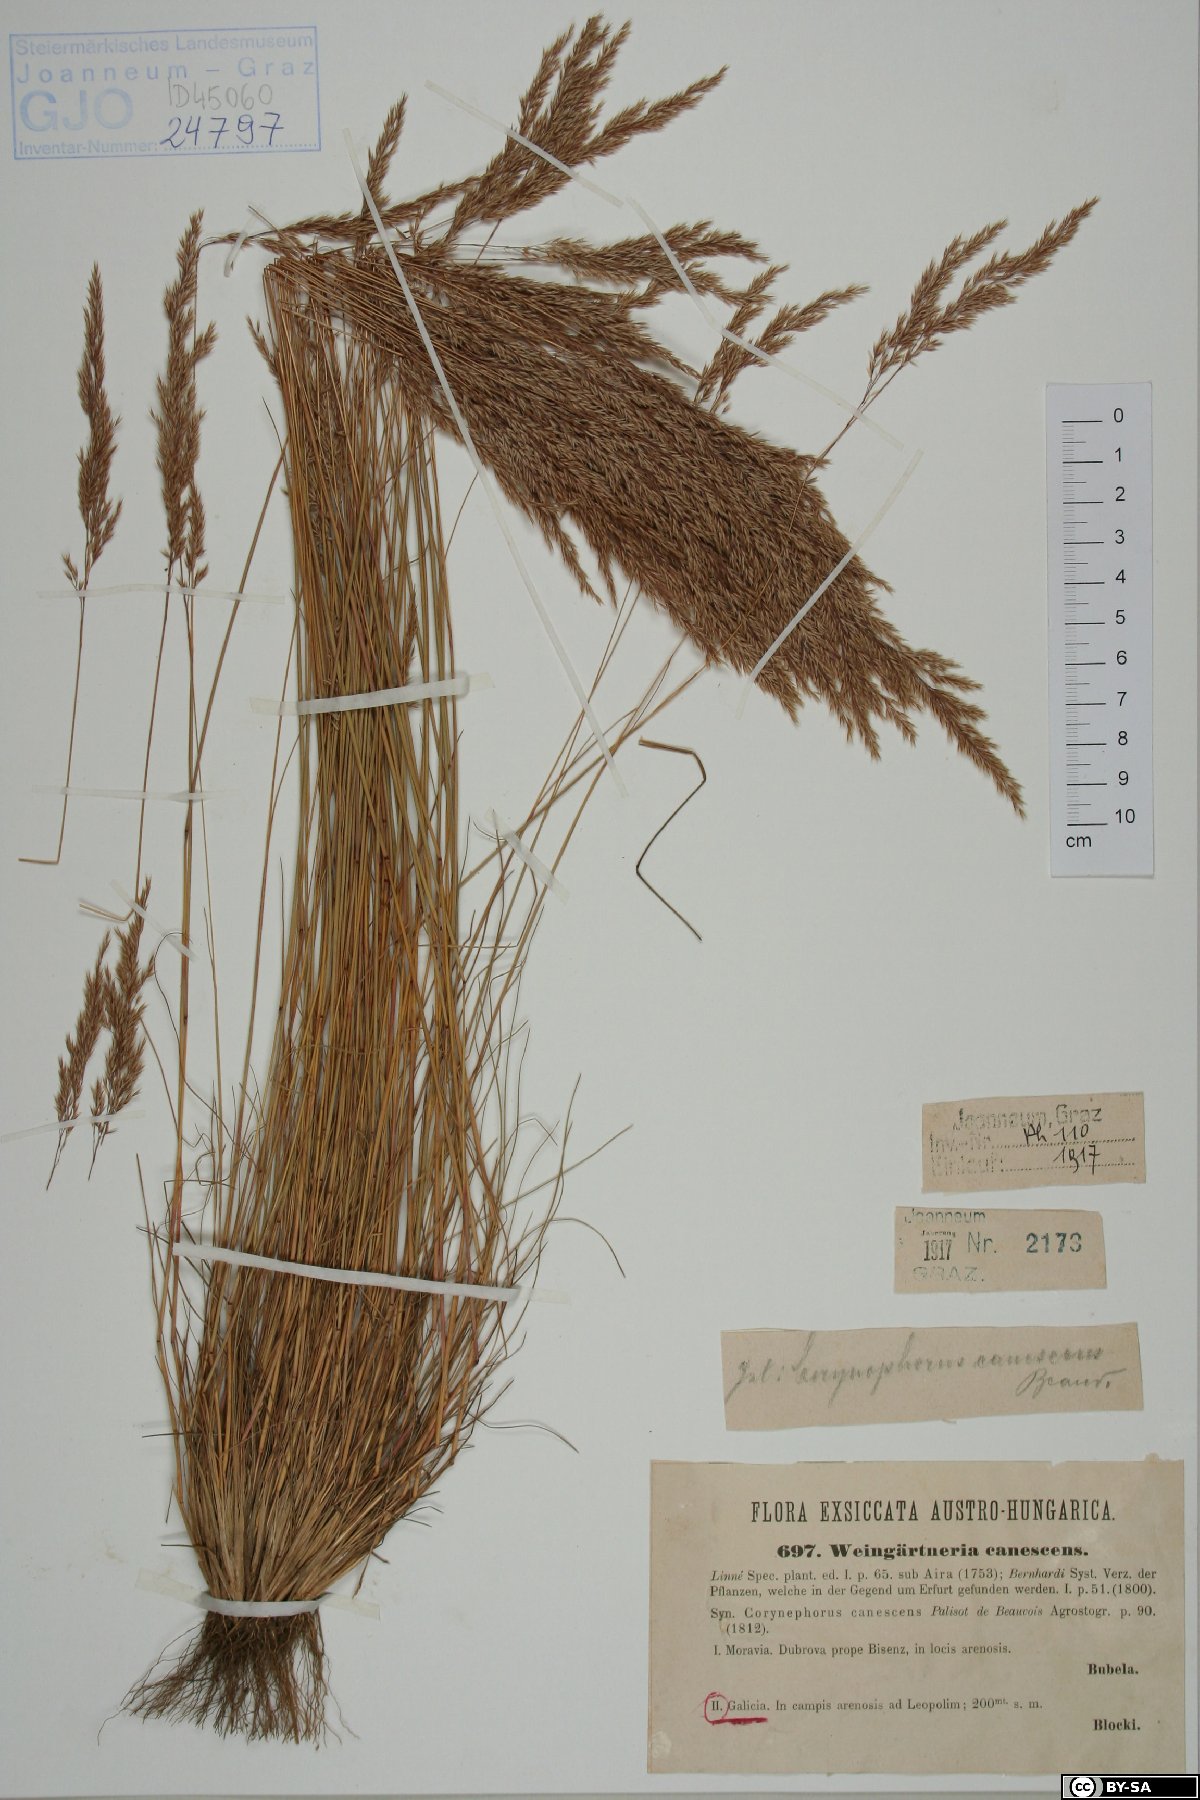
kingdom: Plantae
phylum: Tracheophyta
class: Liliopsida
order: Poales
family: Poaceae
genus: Corynephorus
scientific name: Corynephorus canescens
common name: Grey hair-grass
